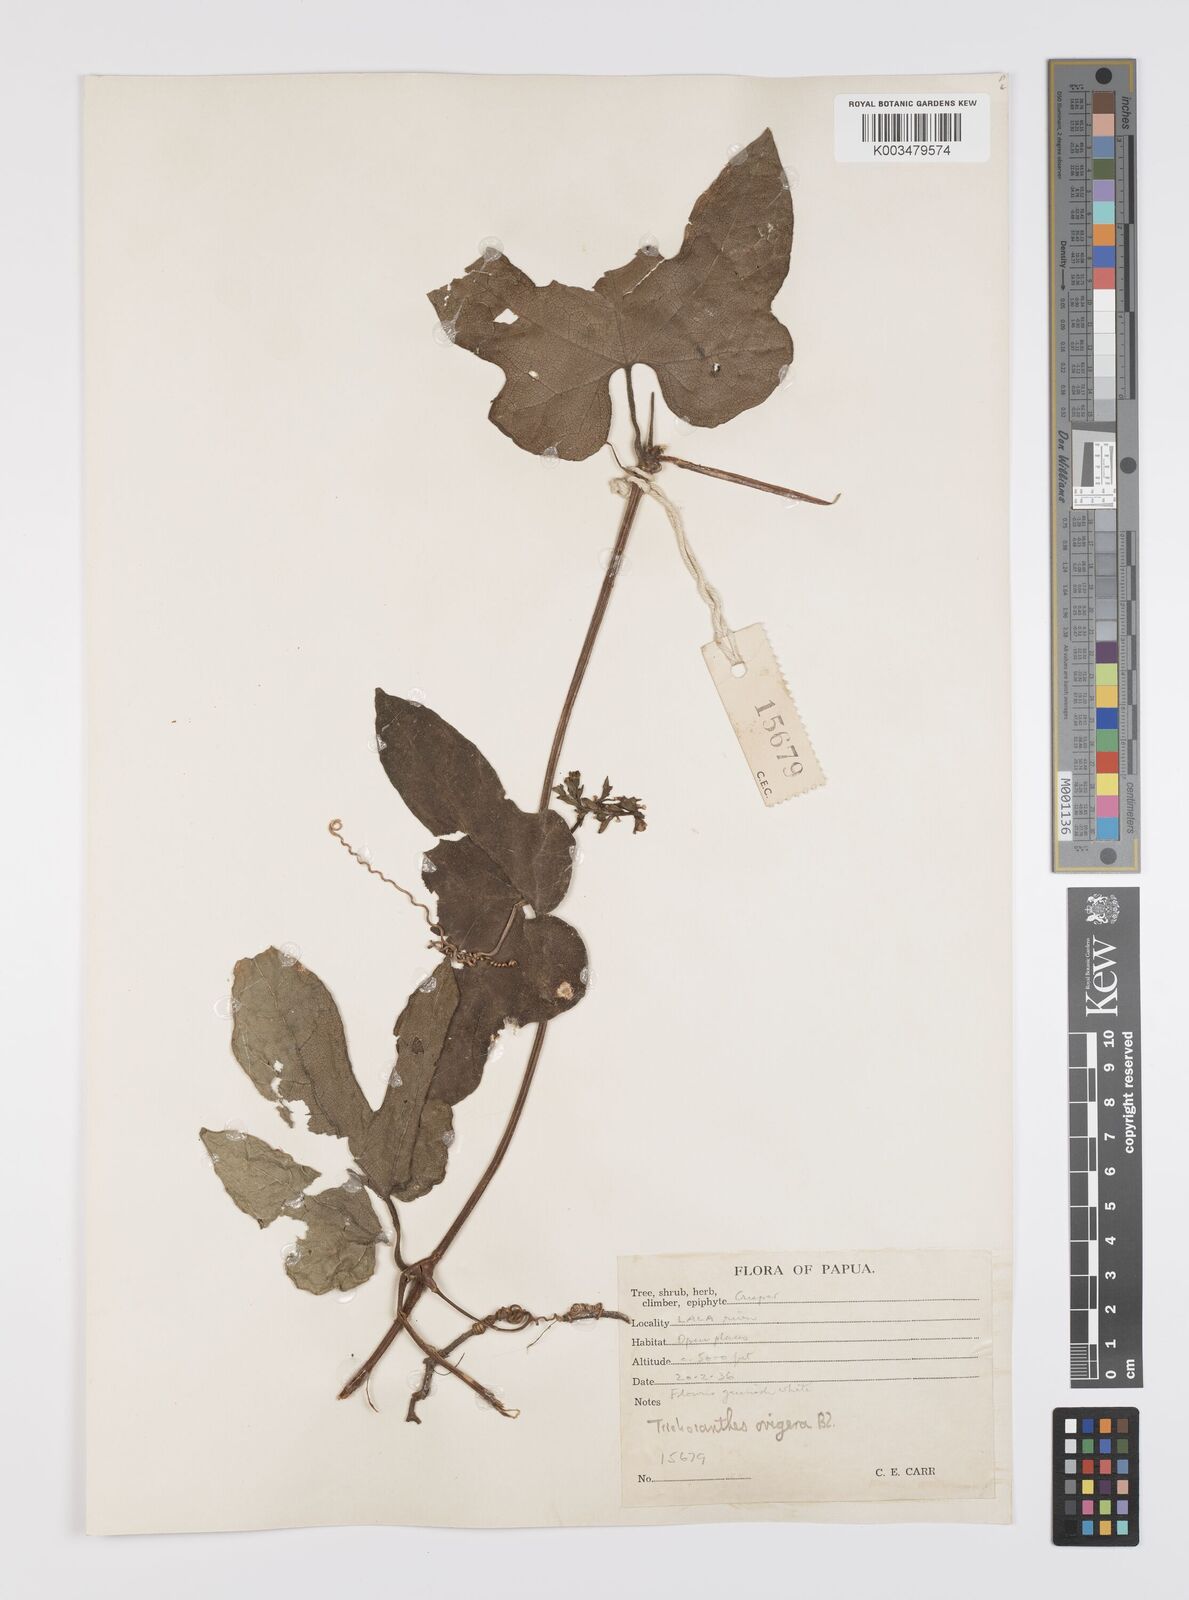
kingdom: Plantae
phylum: Tracheophyta
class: Magnoliopsida
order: Cucurbitales
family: Cucurbitaceae
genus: Trichosanthes
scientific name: Trichosanthes ovigera
